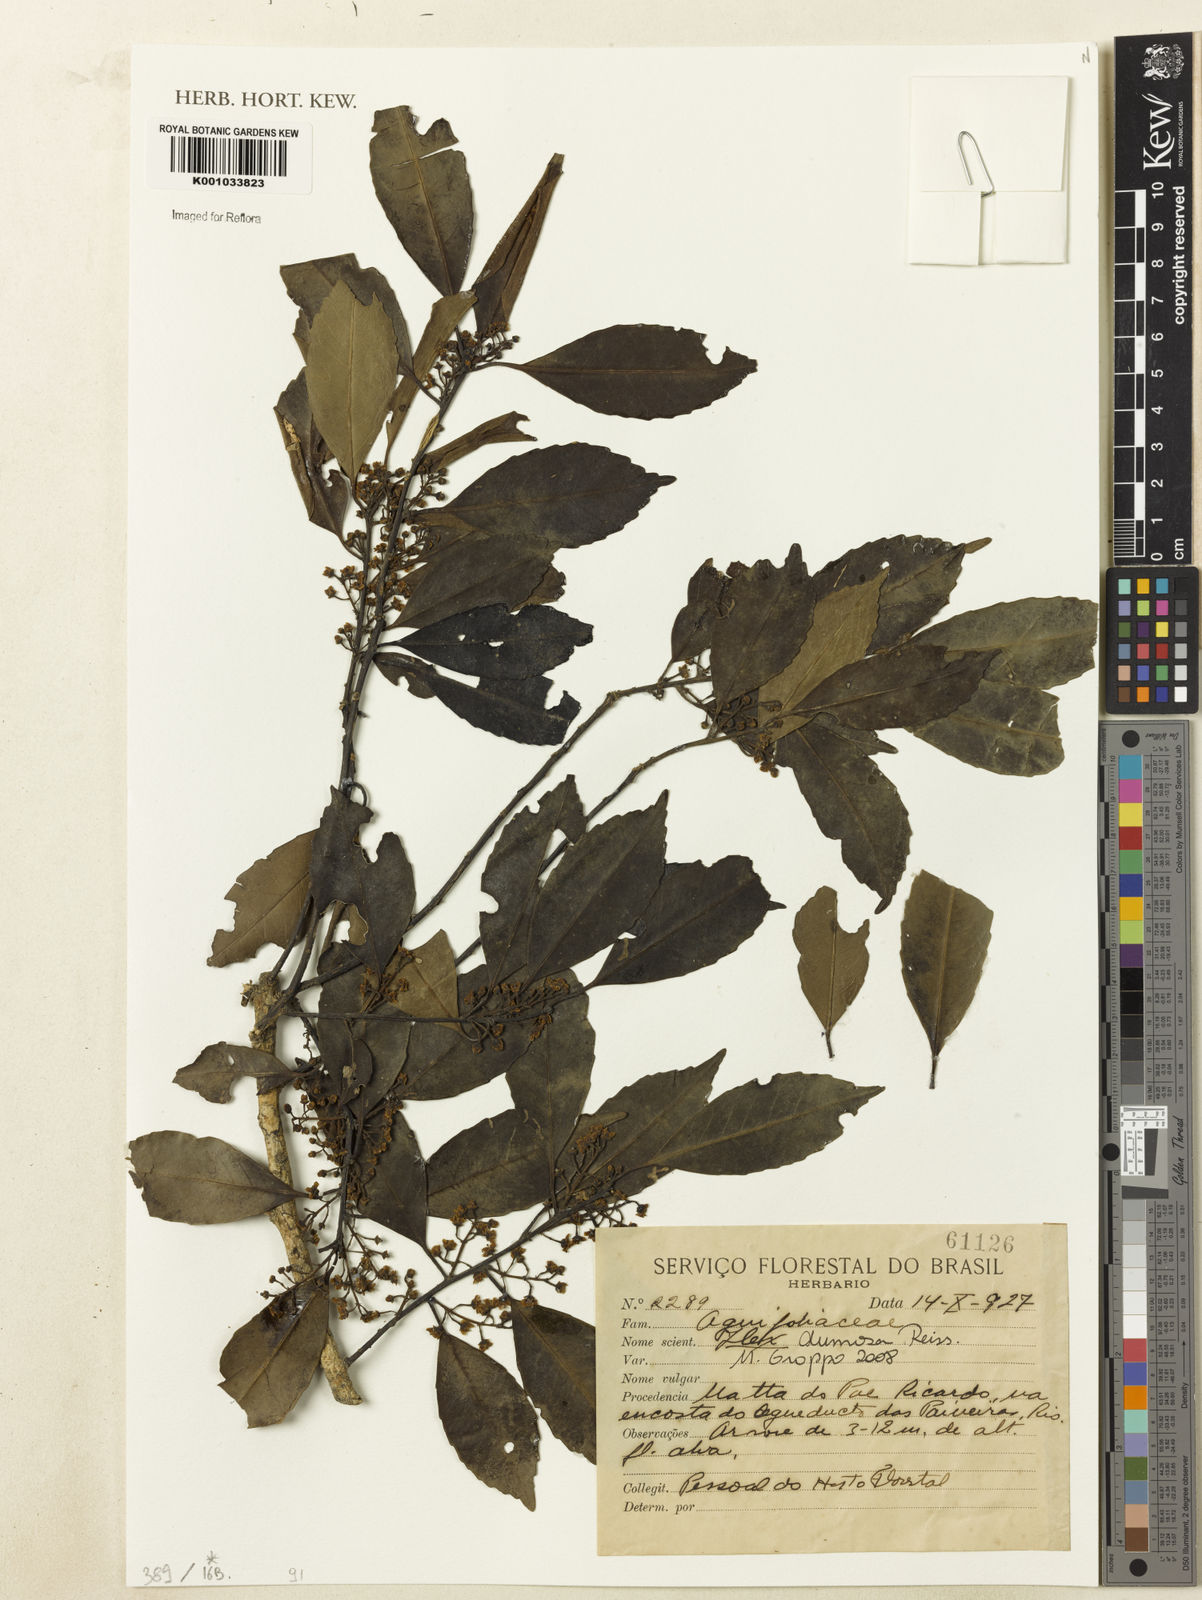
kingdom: Plantae
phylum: Tracheophyta
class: Magnoliopsida
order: Aquifoliales
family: Aquifoliaceae
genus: Ilex
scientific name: Ilex dumosa
